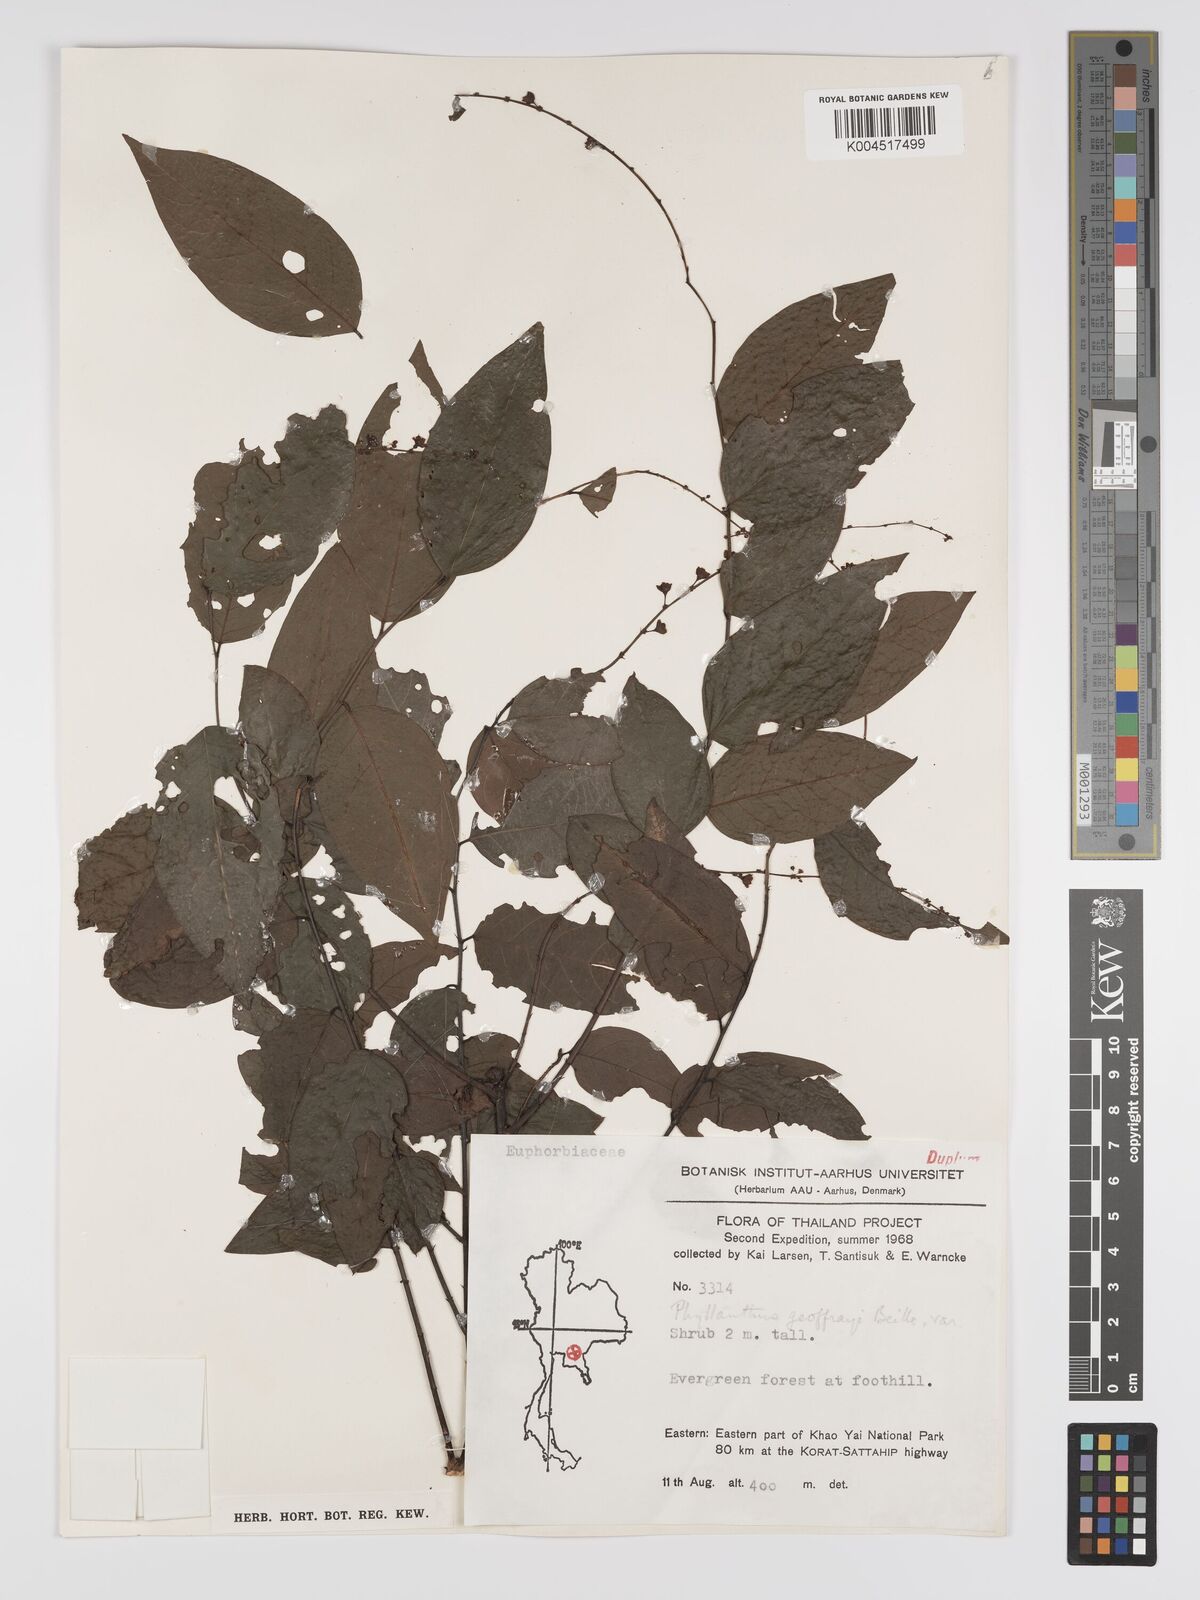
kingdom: Plantae
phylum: Tracheophyta
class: Magnoliopsida
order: Malpighiales
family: Phyllanthaceae
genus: Phyllanthus
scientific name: Phyllanthus geoffrayi
